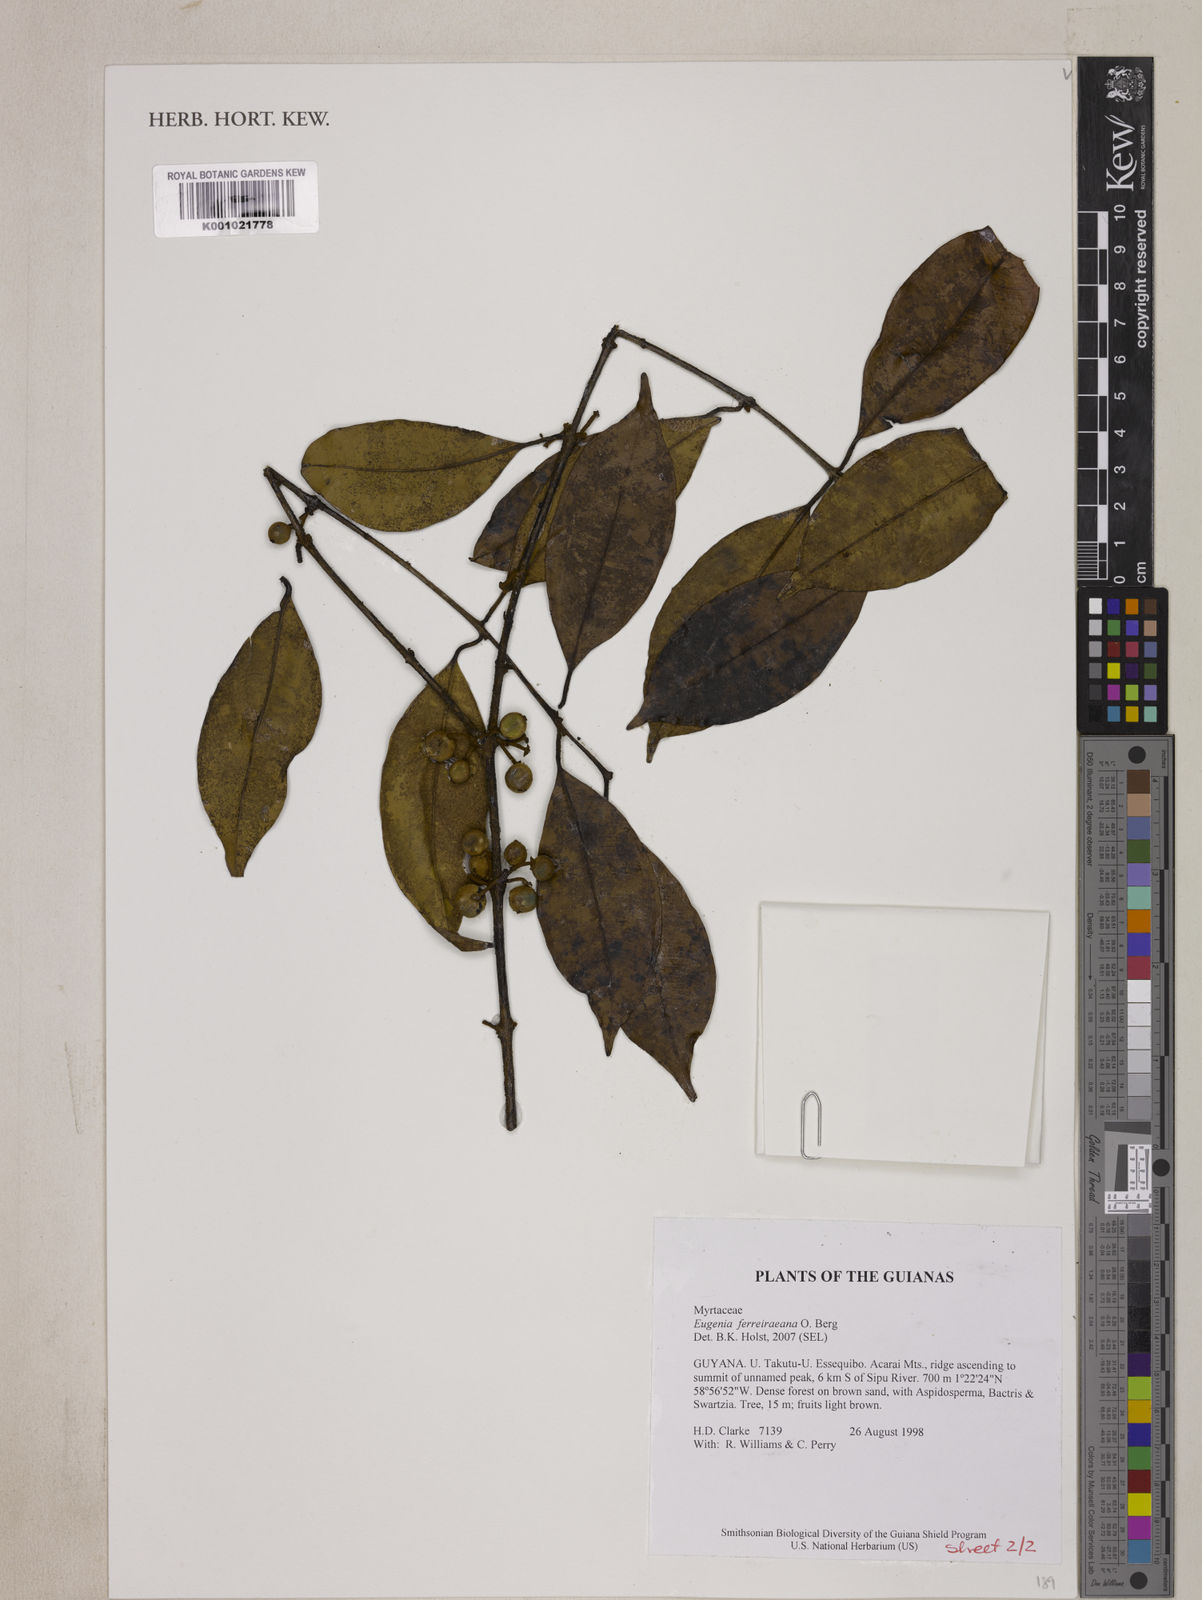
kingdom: Plantae
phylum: Tracheophyta
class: Magnoliopsida
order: Myrtales
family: Myrtaceae
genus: Eugenia
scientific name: Eugenia ferreiraeana
